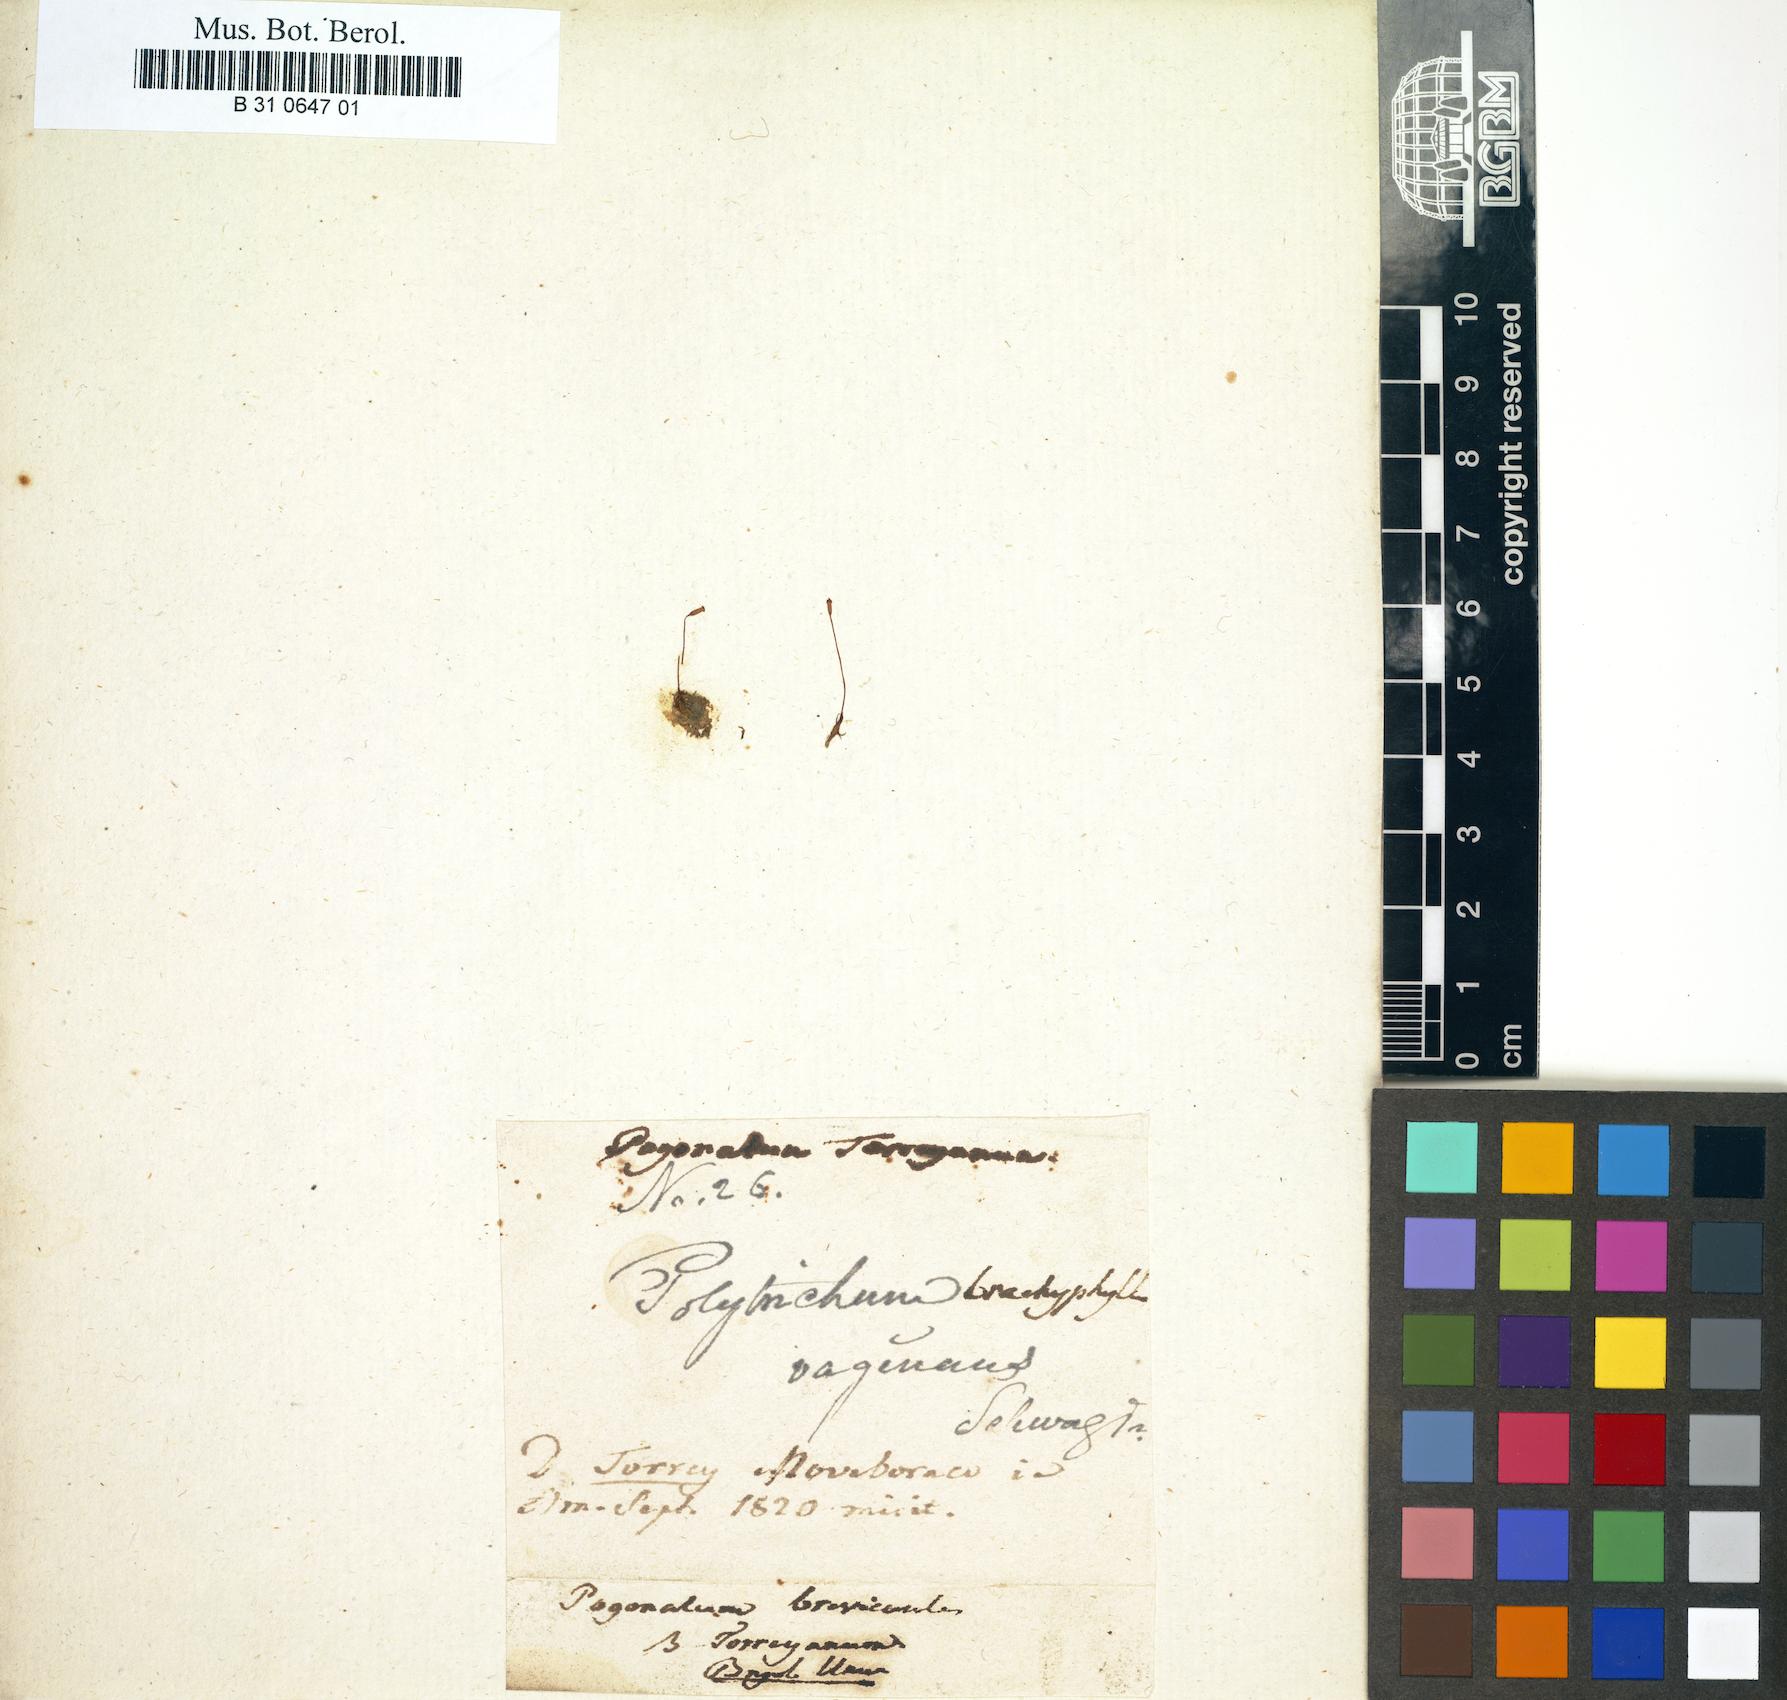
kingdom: Plantae
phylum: Bryophyta
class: Polytrichopsida
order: Polytrichales
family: Polytrichaceae
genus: Pogonatum
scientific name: Pogonatum pensilvanicum
